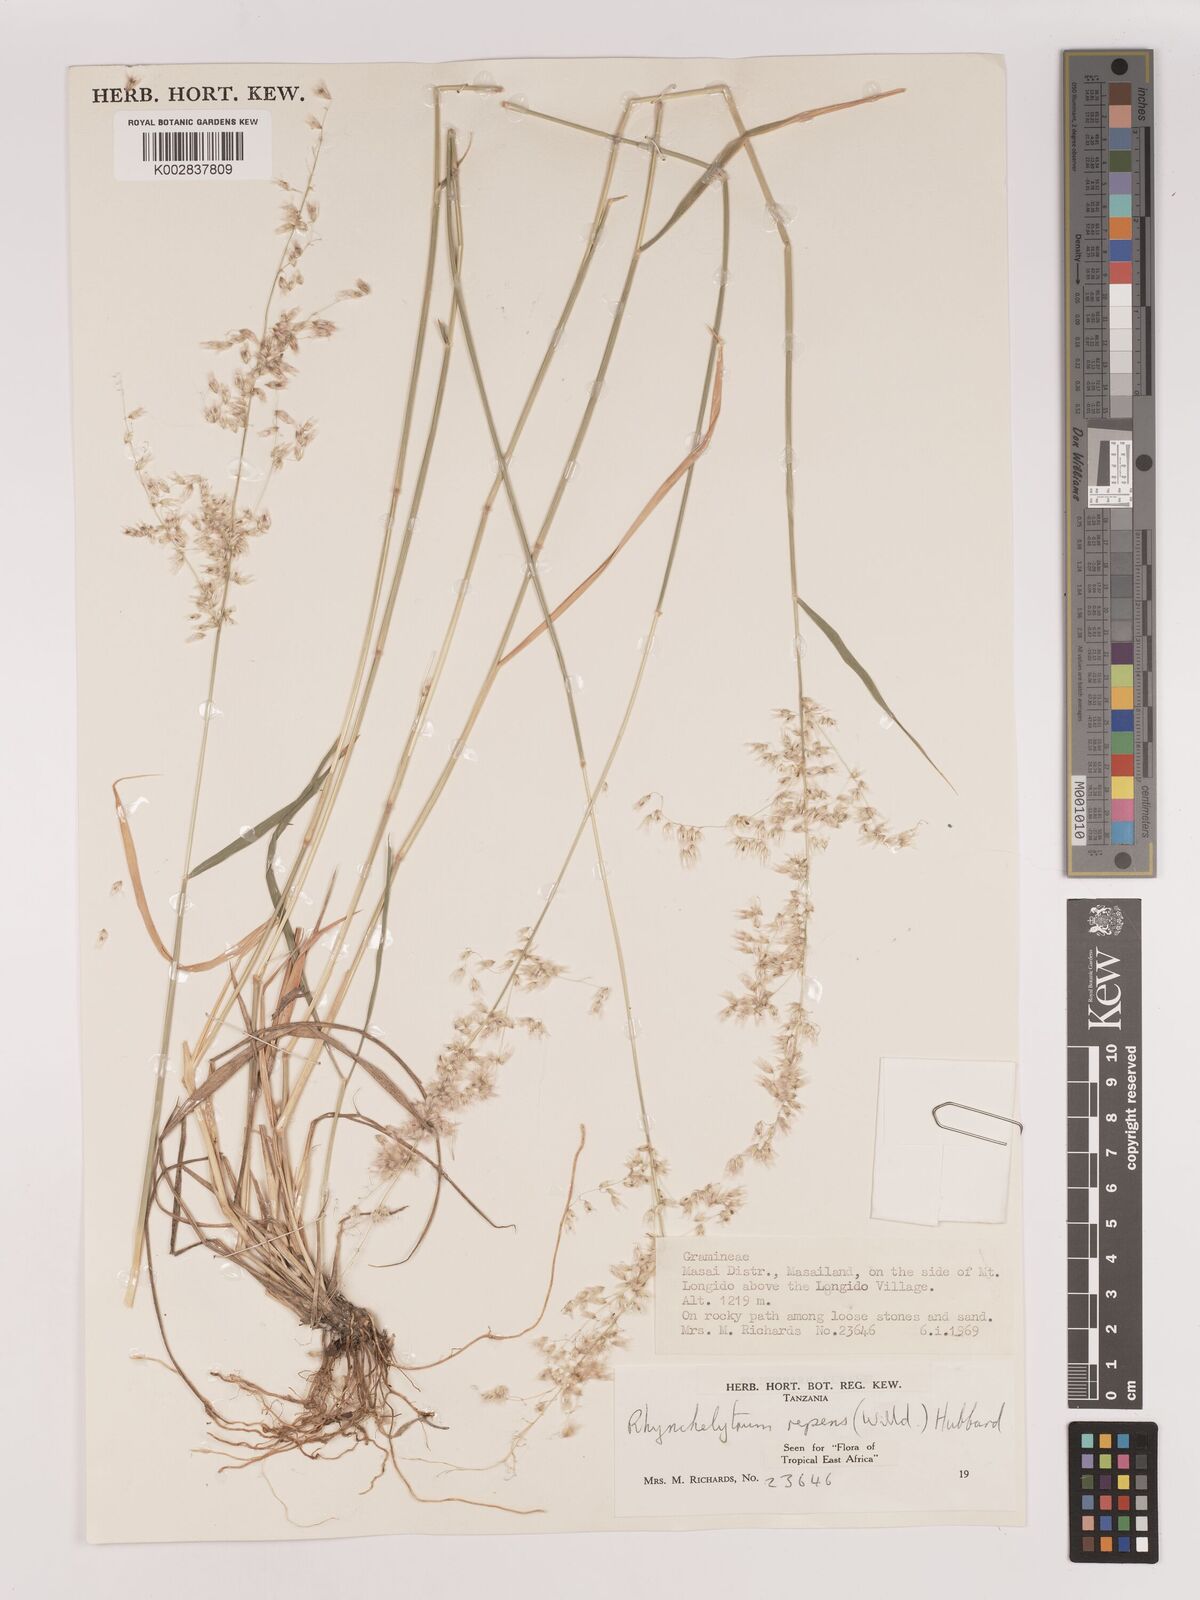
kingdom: Plantae
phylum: Tracheophyta
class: Liliopsida
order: Poales
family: Poaceae
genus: Melinis
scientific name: Melinis repens
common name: Rose natal grass
